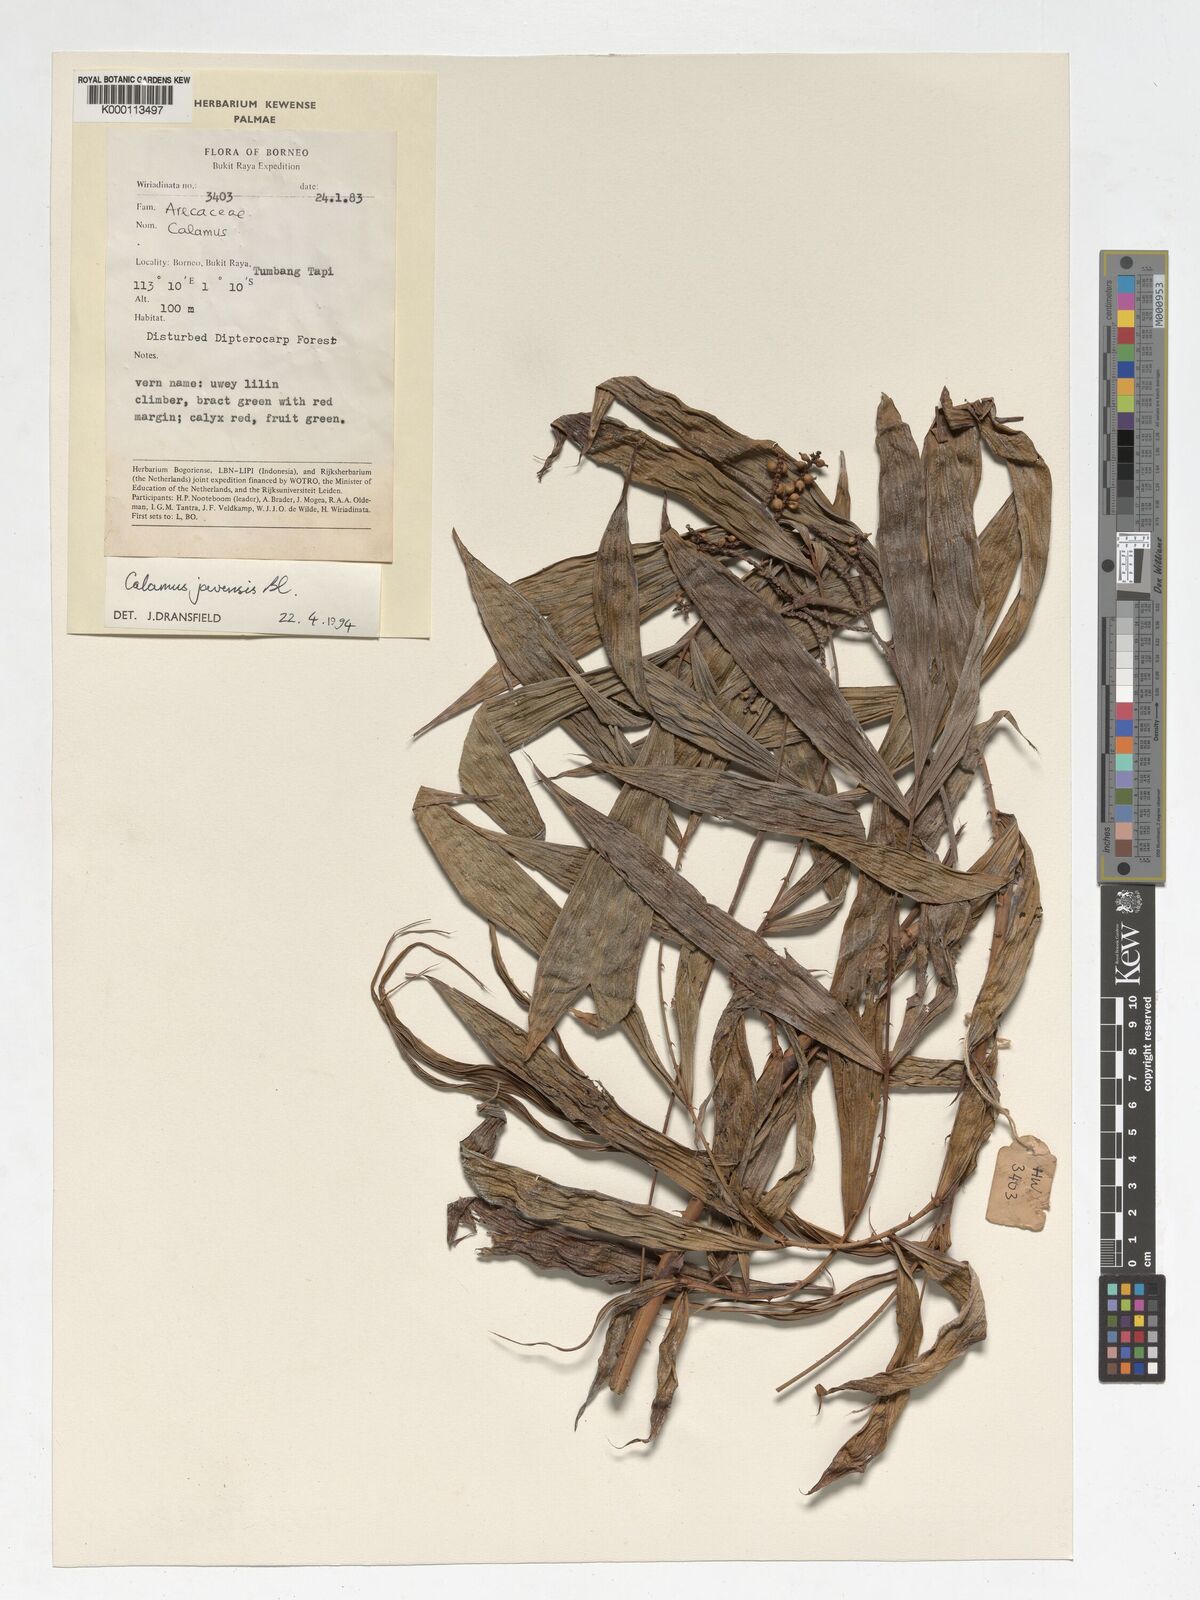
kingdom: Plantae
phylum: Tracheophyta
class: Liliopsida
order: Arecales
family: Arecaceae
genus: Calamus
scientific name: Calamus javensis
